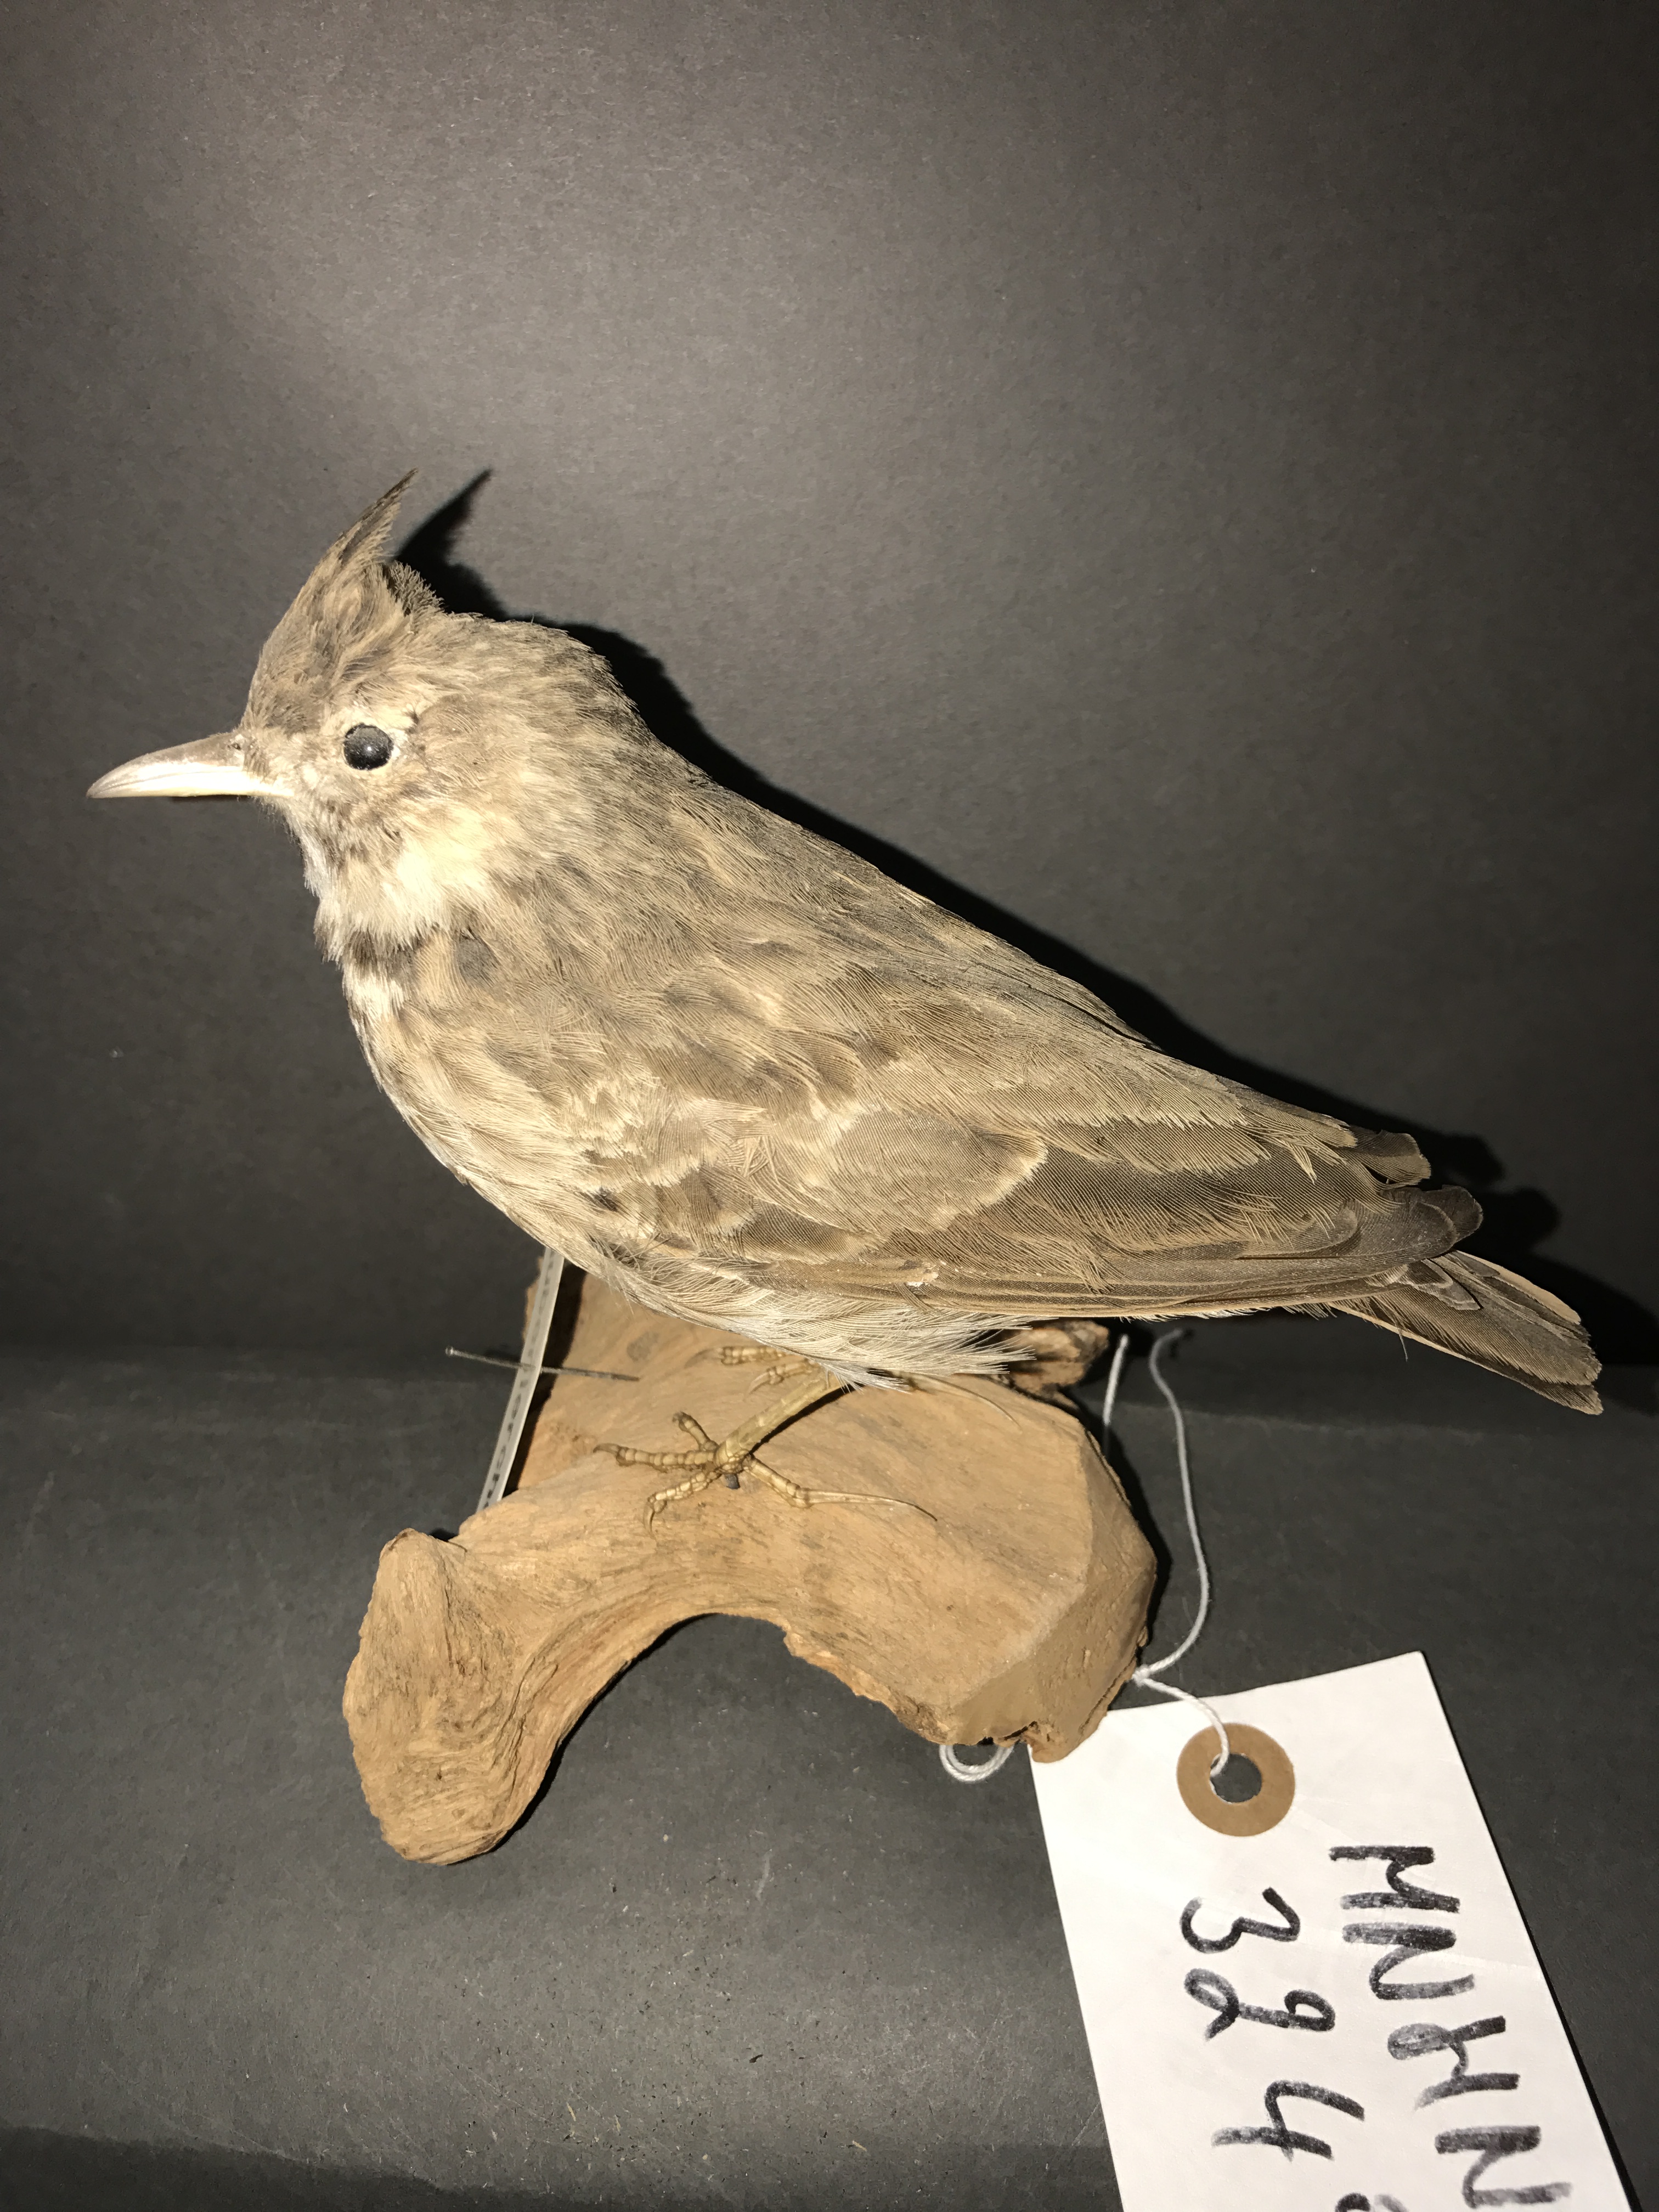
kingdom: Animalia
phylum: Chordata
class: Aves
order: Passeriformes
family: Alaudidae
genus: Galerida
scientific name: Galerida cristata
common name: Crested lark
